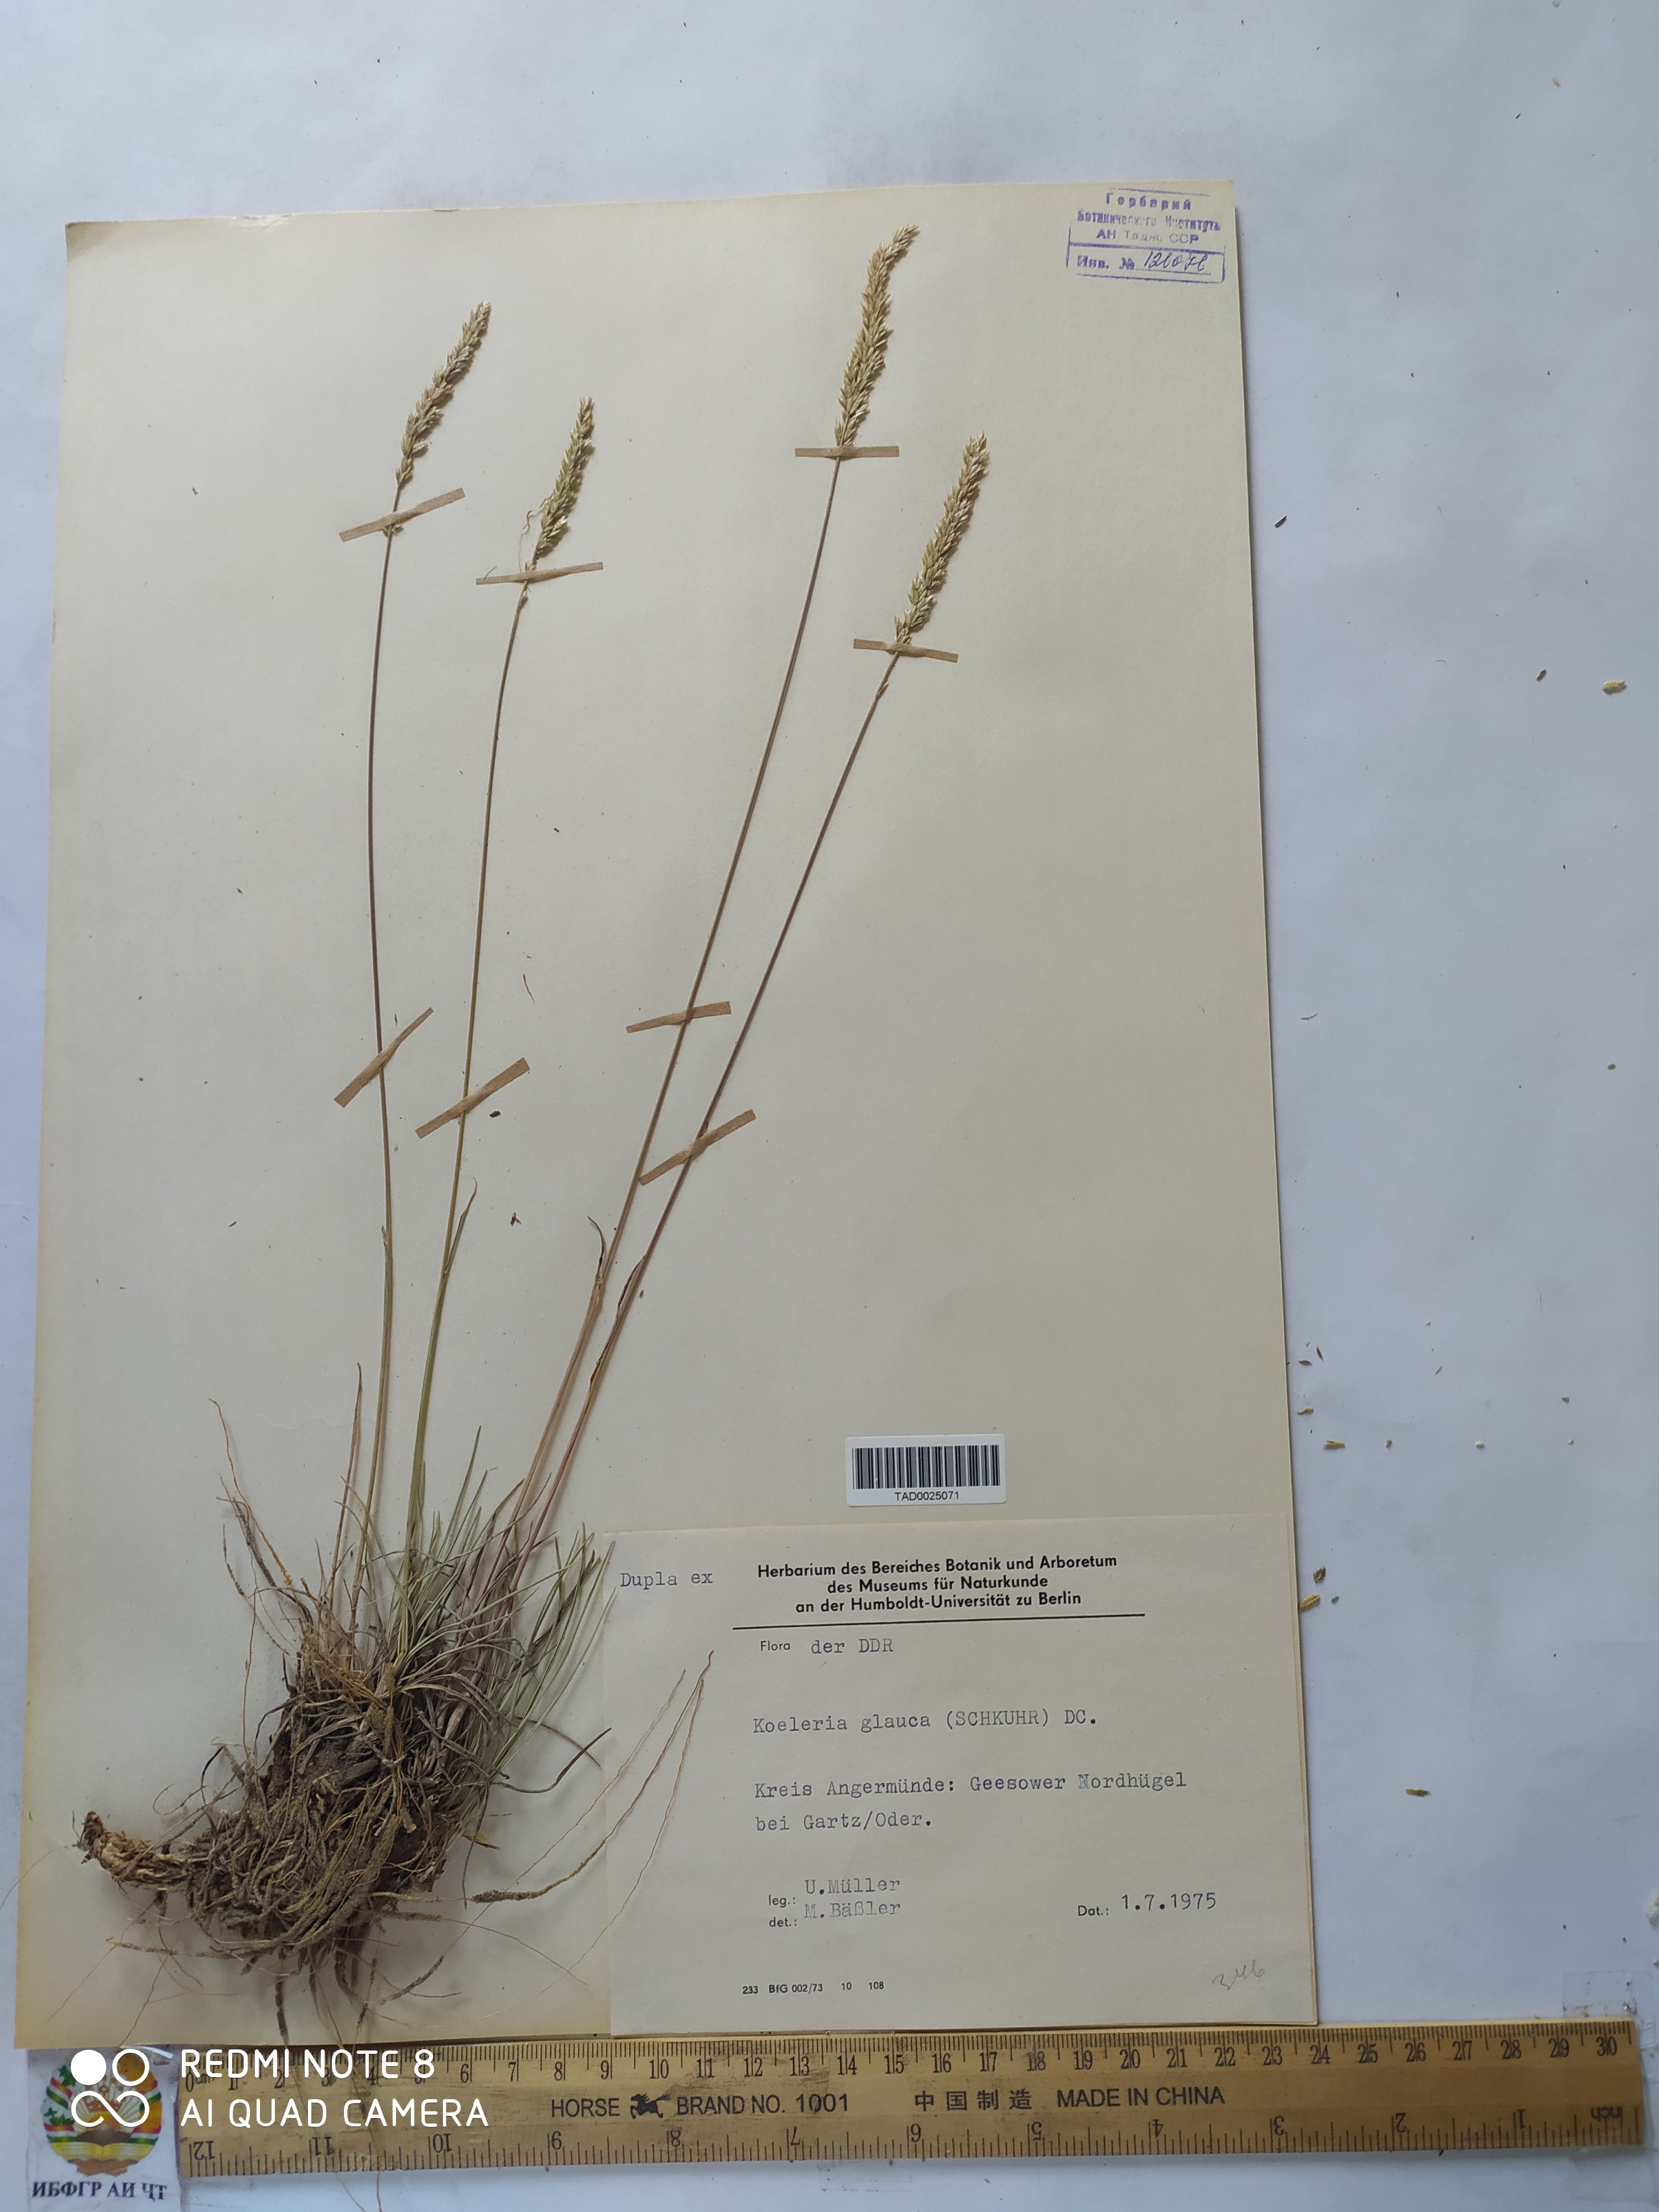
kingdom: Plantae
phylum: Tracheophyta
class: Liliopsida
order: Poales
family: Poaceae
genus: Koeleria
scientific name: Koeleria glauca
